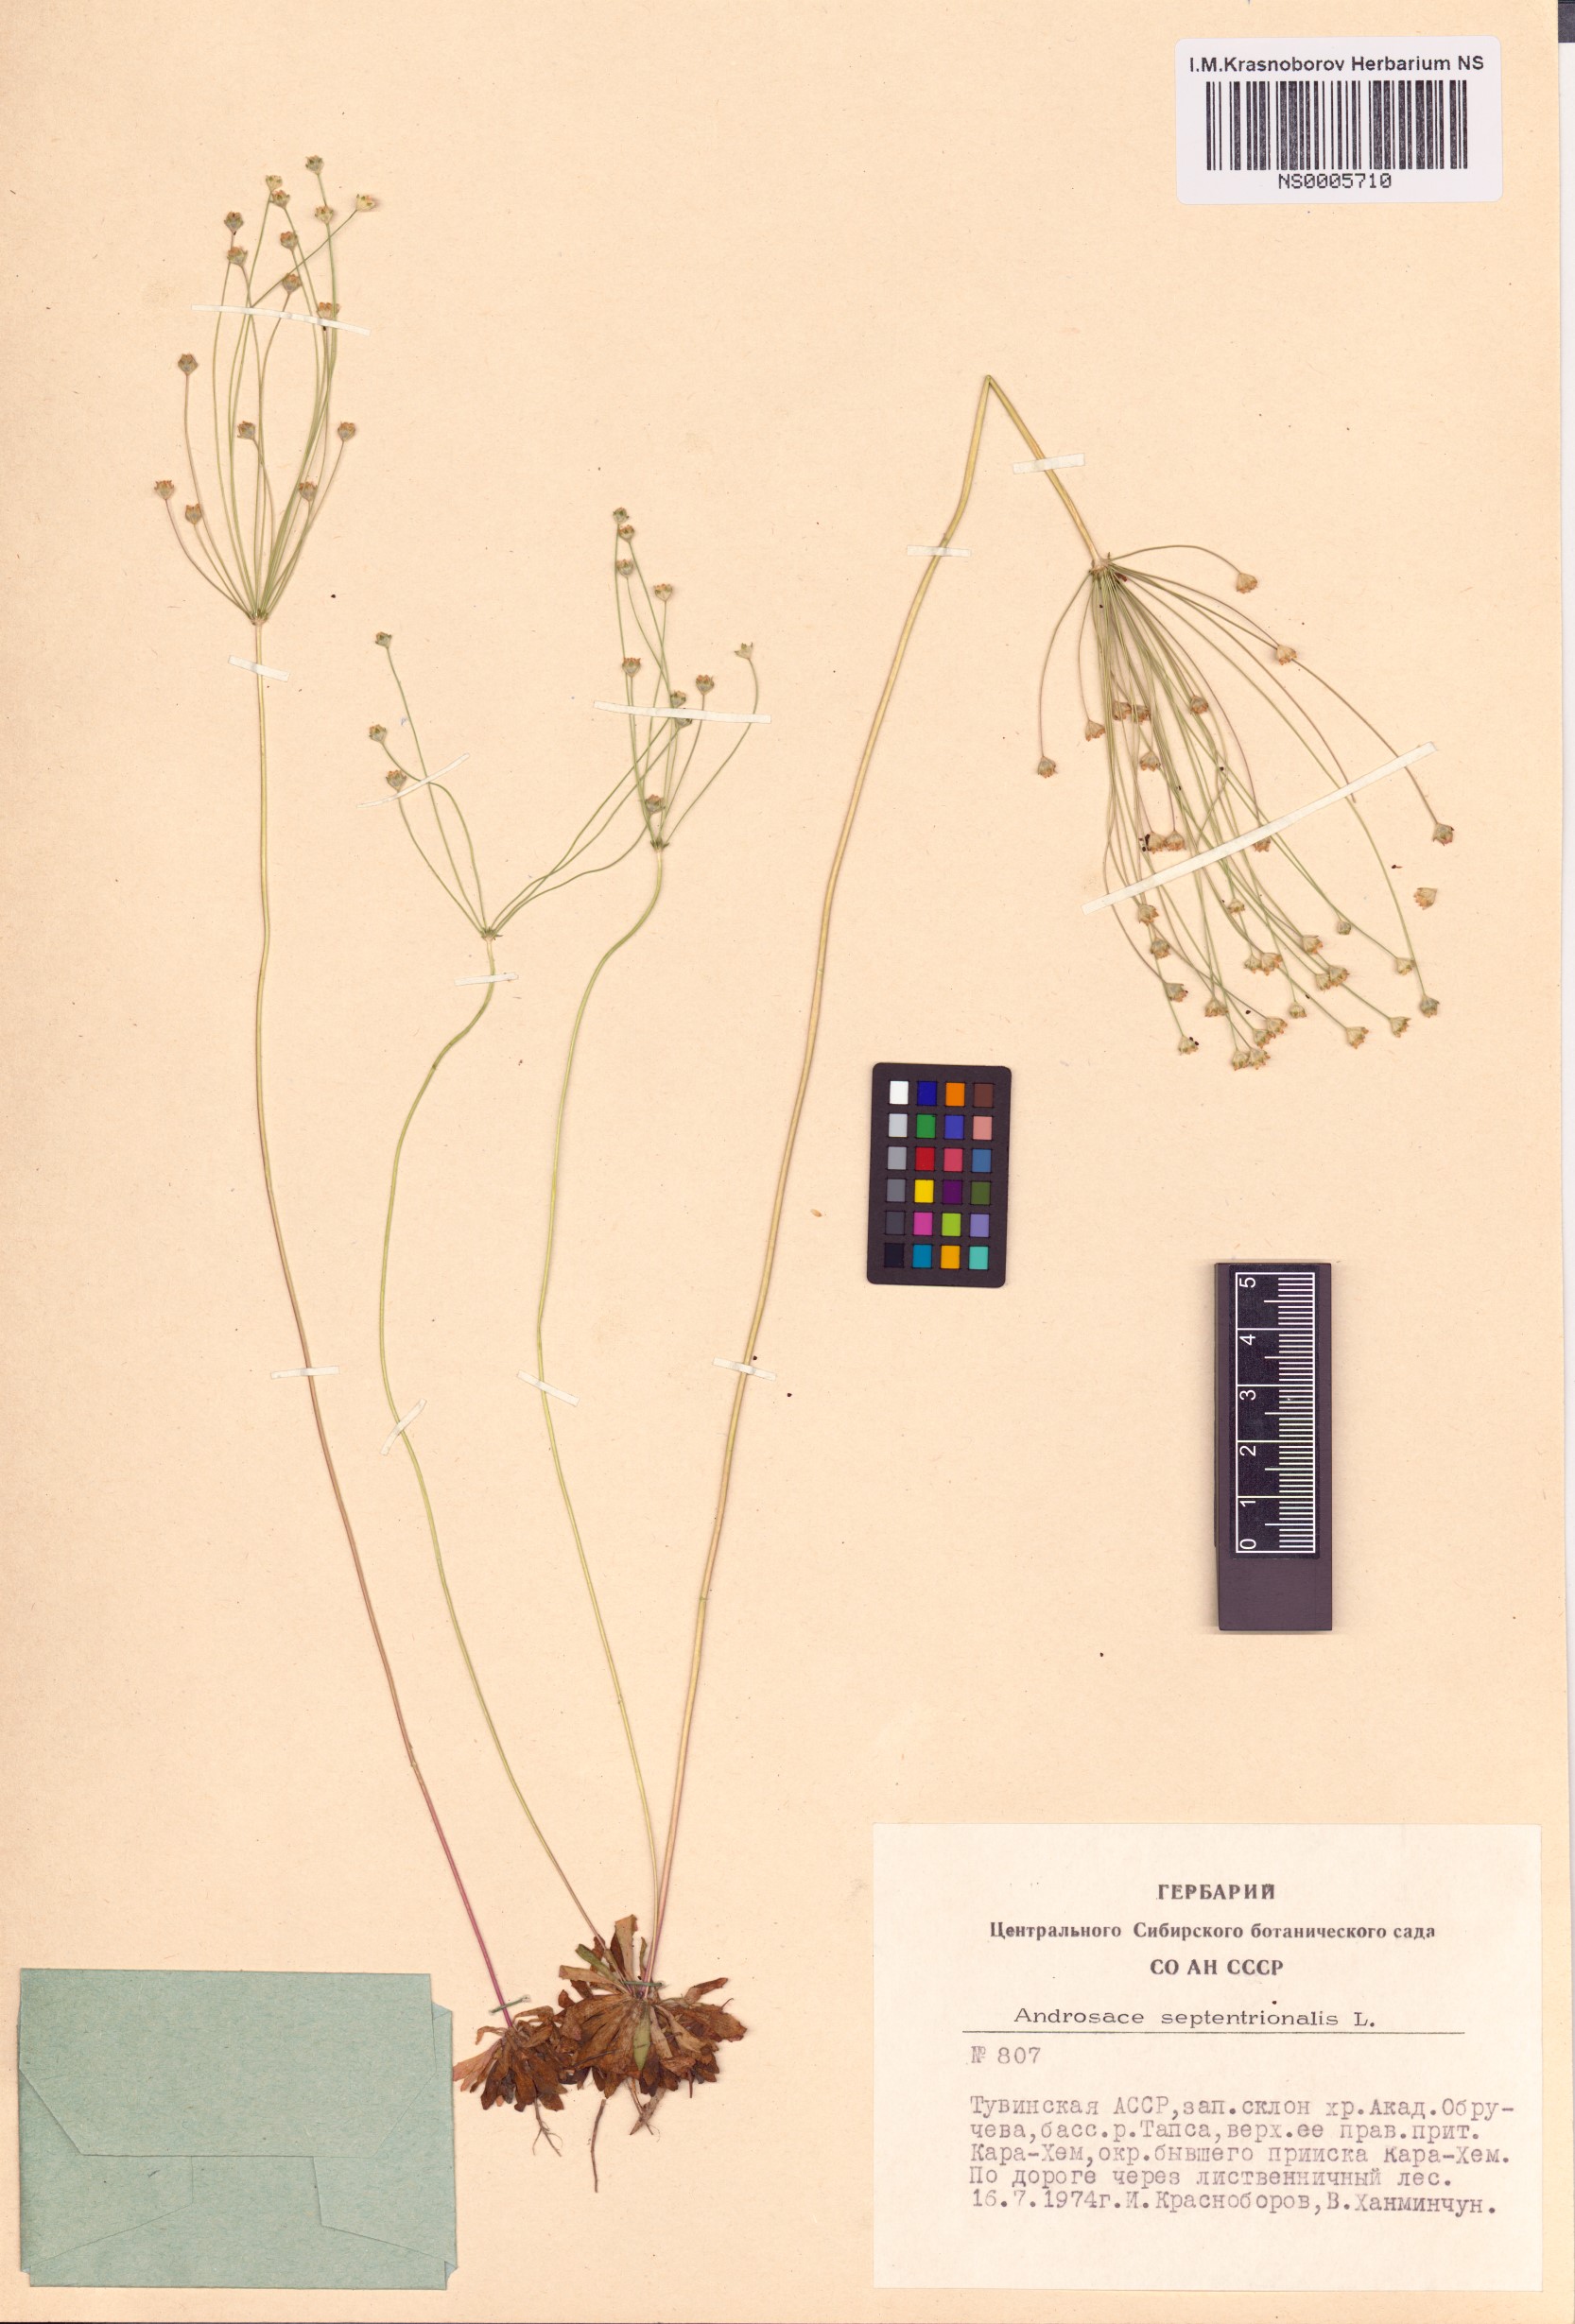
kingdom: Plantae
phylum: Tracheophyta
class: Magnoliopsida
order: Ericales
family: Primulaceae
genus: Androsace
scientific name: Androsace septentrionalis
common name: Hairy northern fairy-candelabra
